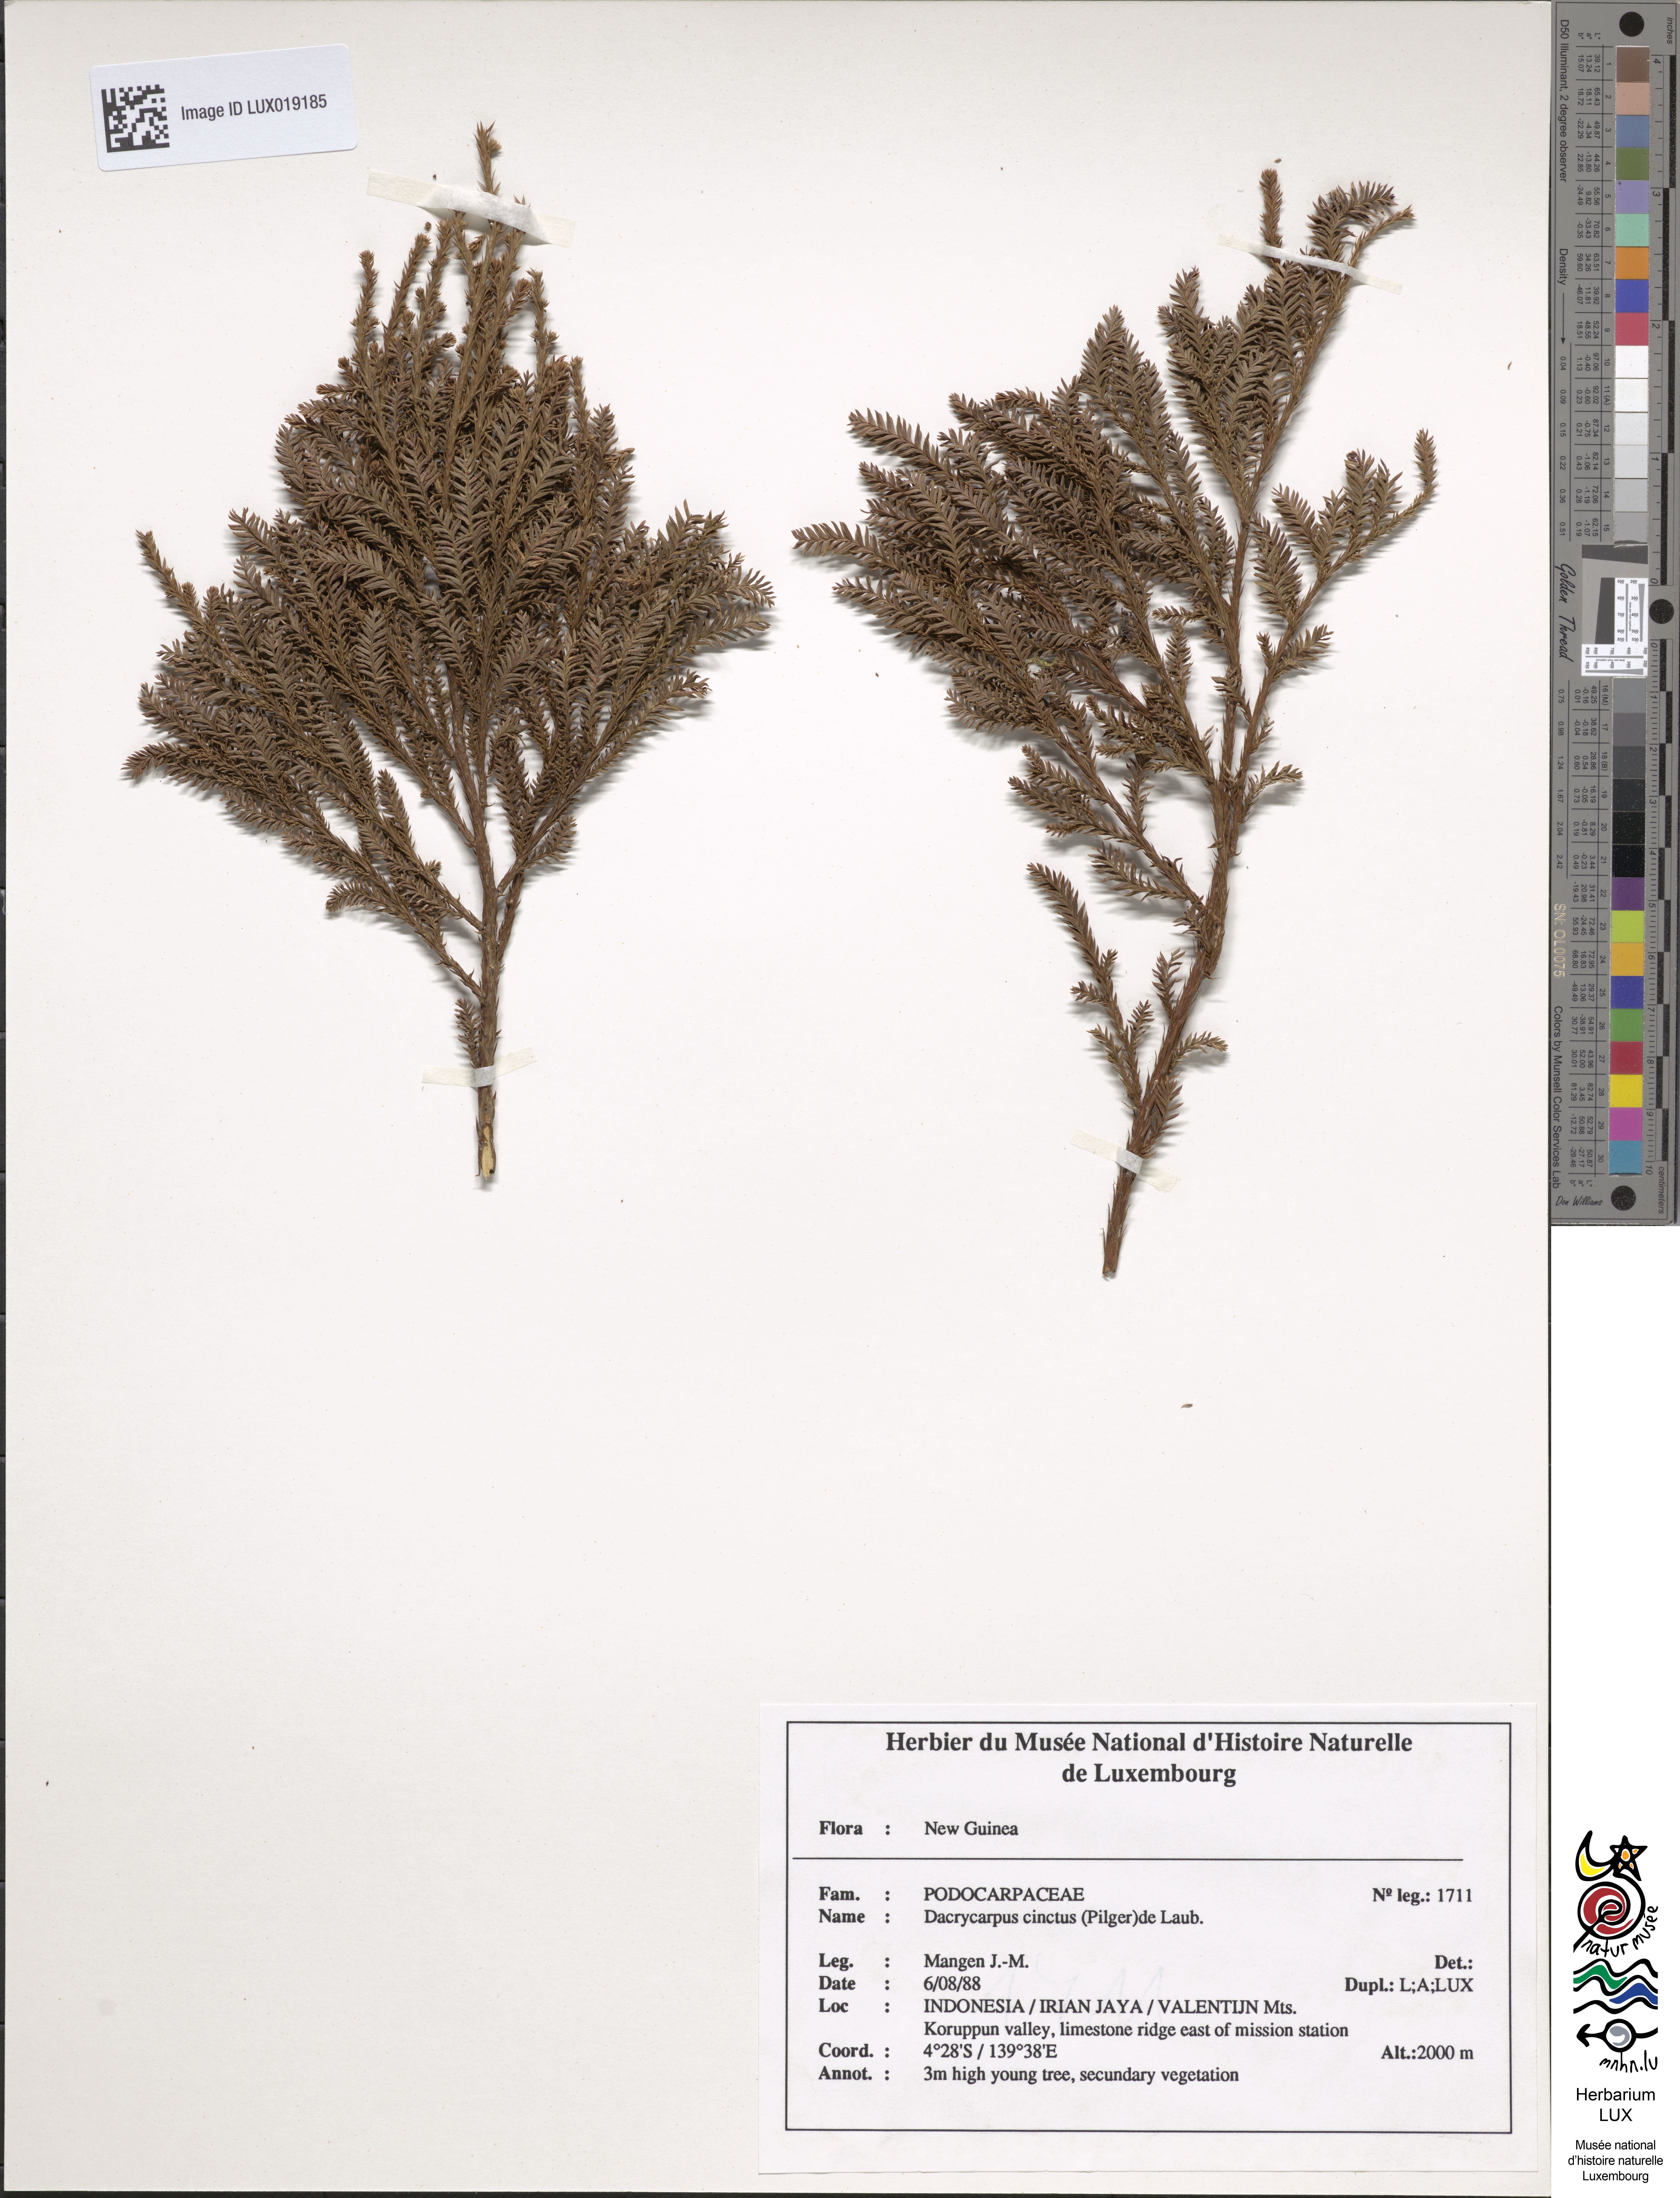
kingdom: Plantae
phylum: Tracheophyta
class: Pinopsida
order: Pinales
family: Podocarpaceae
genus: Dacrycarpus
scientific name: Dacrycarpus cinctus
